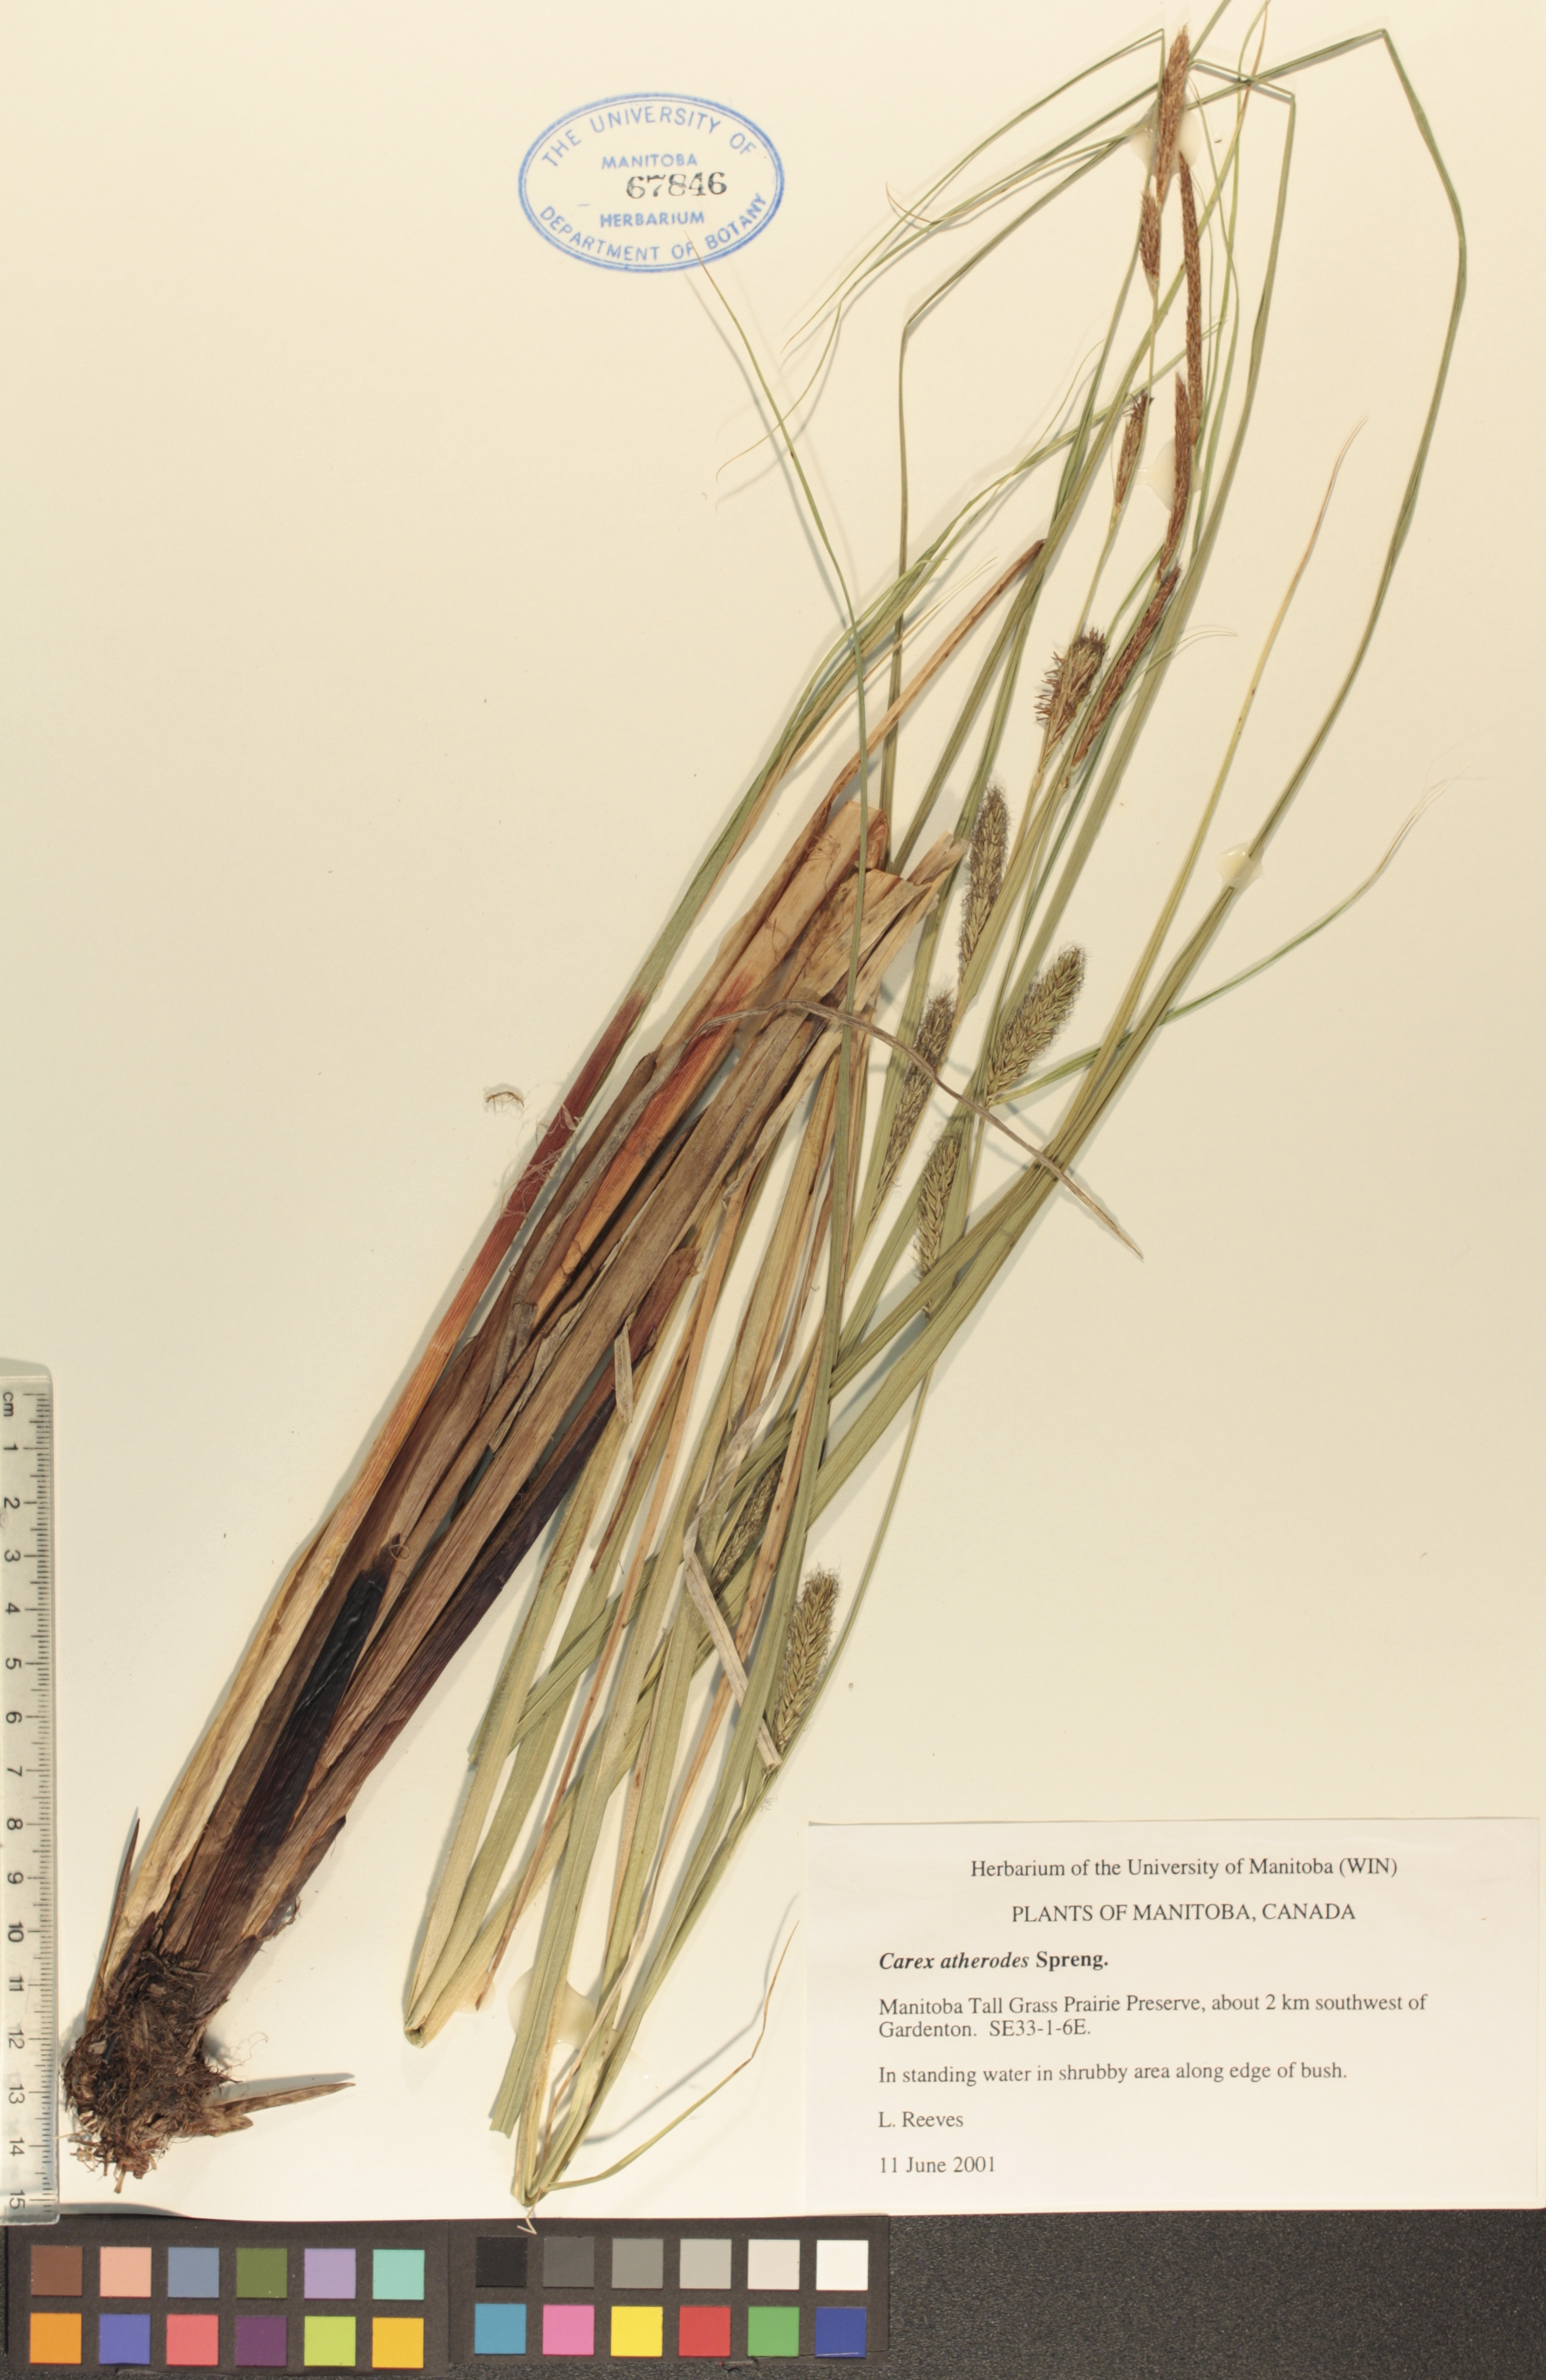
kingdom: Plantae
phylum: Tracheophyta
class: Liliopsida
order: Poales
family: Cyperaceae
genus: Carex
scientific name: Carex atherodes
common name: Wheat sedge
